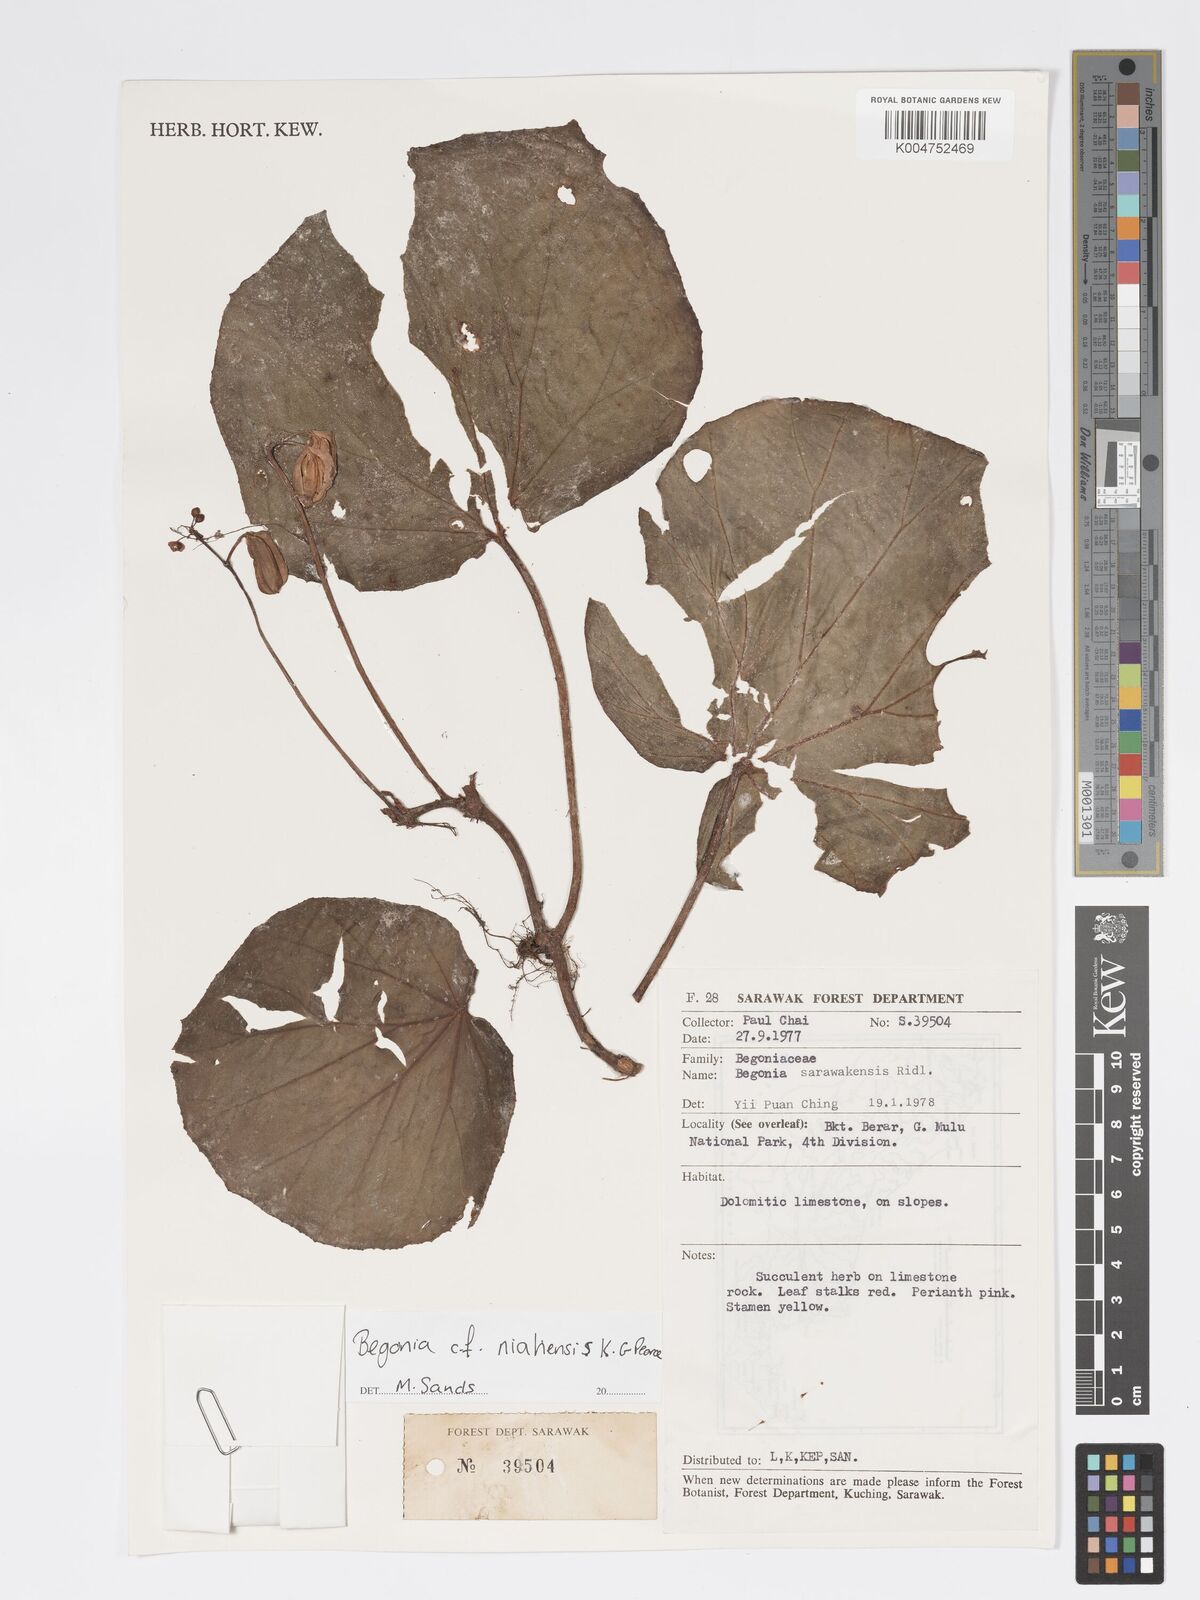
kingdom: Plantae
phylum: Tracheophyta
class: Magnoliopsida
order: Cucurbitales
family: Begoniaceae
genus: Begonia
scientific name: Begonia niahensis
